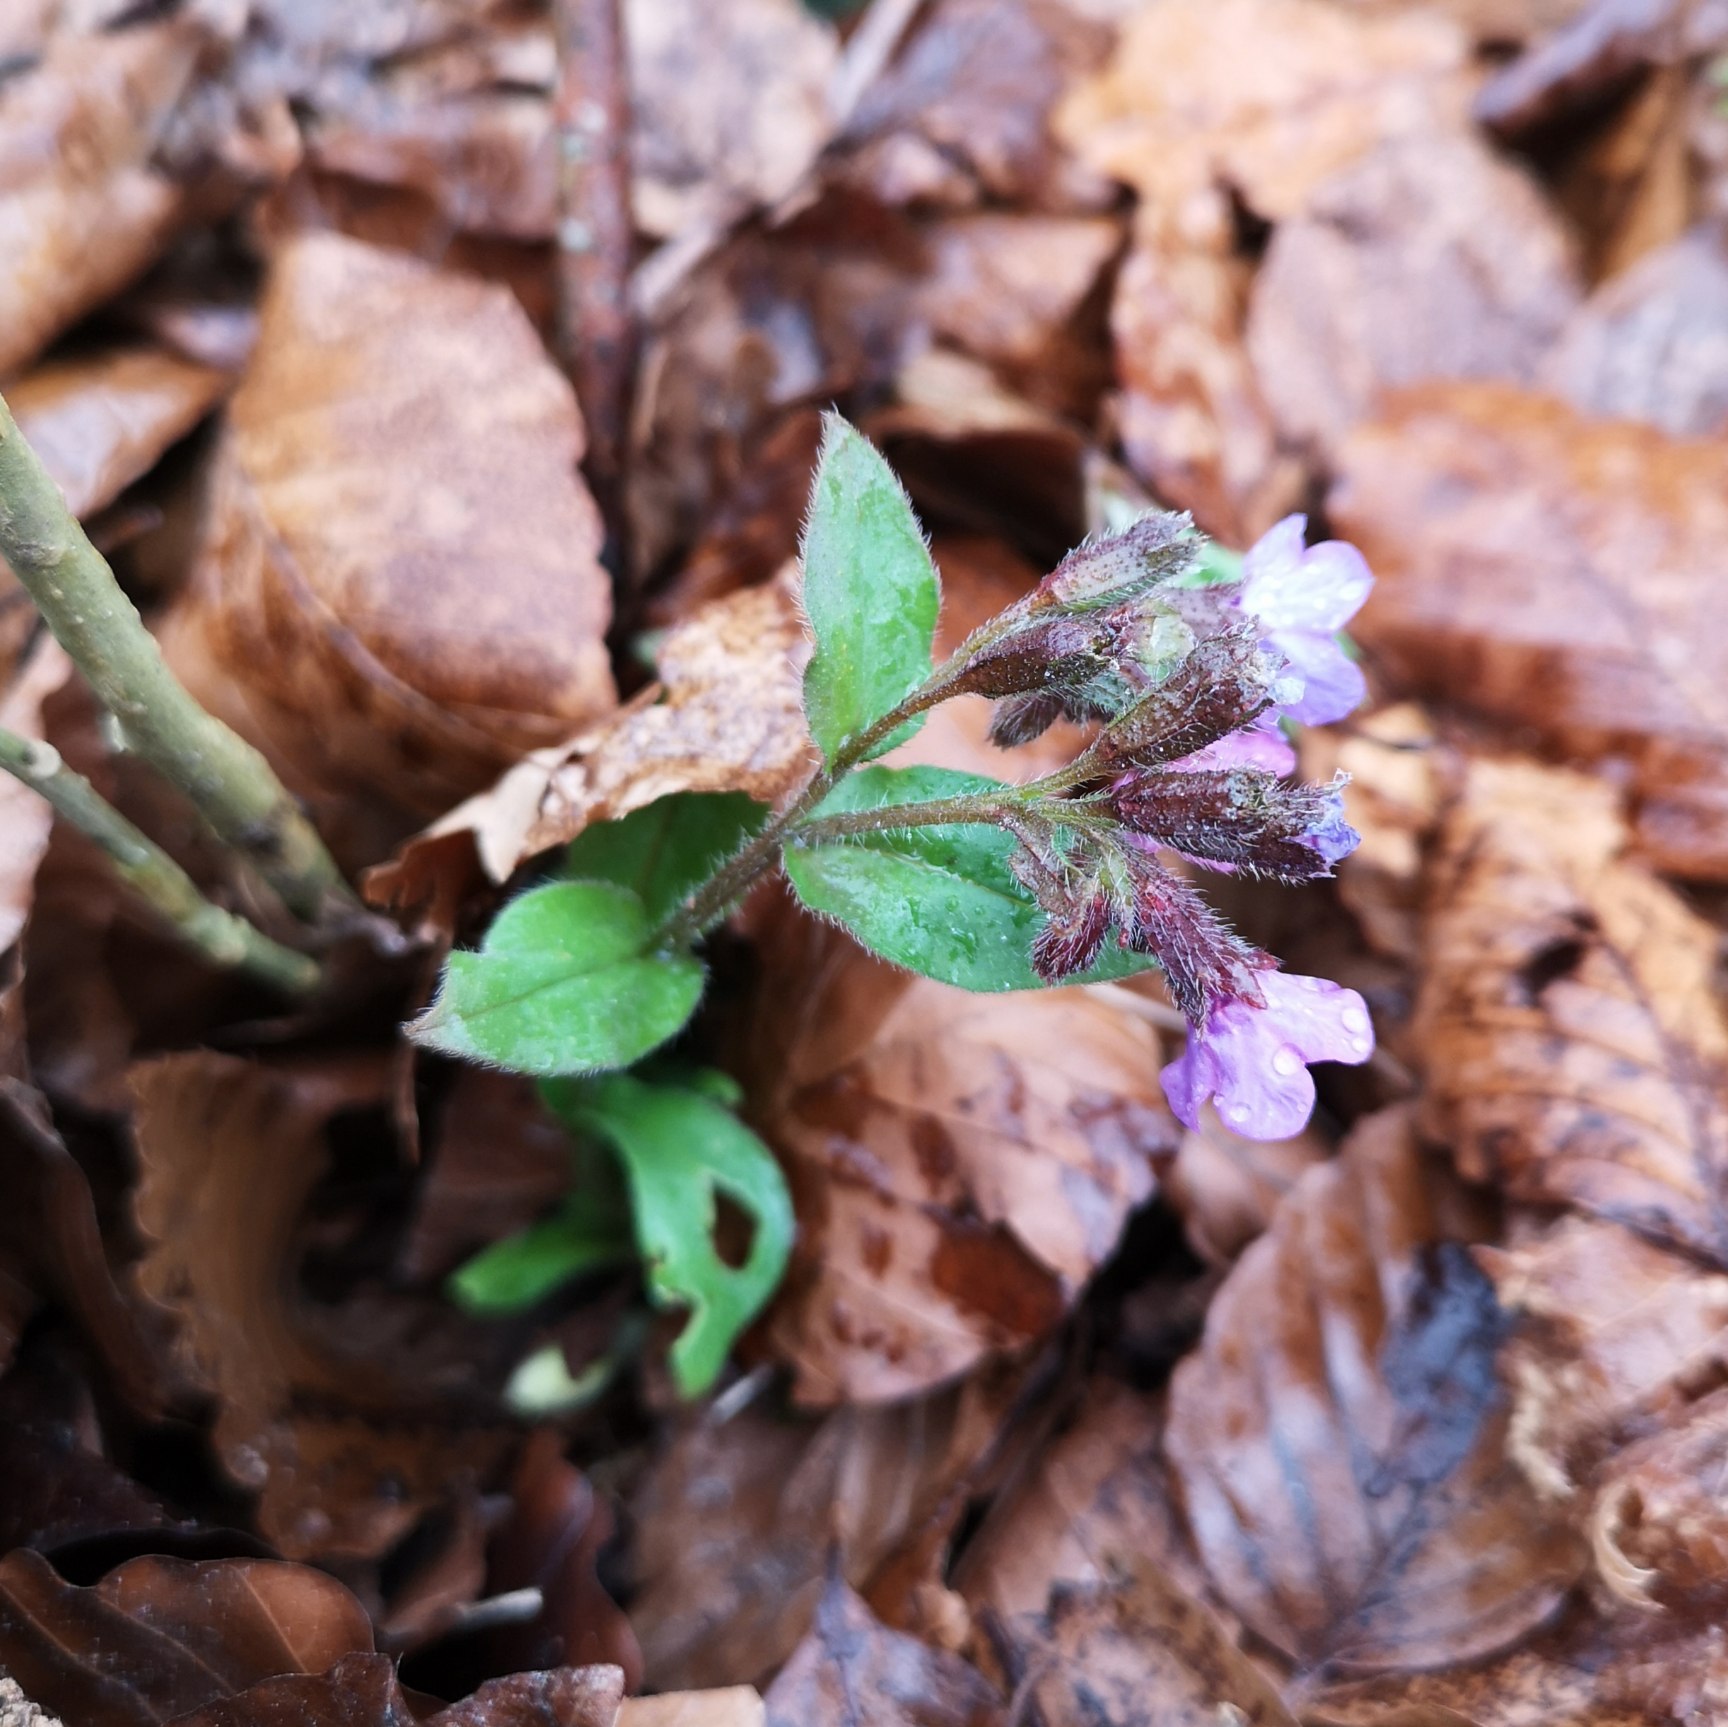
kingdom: Plantae
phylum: Tracheophyta
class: Magnoliopsida
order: Boraginales
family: Boraginaceae
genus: Pulmonaria
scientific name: Pulmonaria obscura
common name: Almindelig lungeurt
